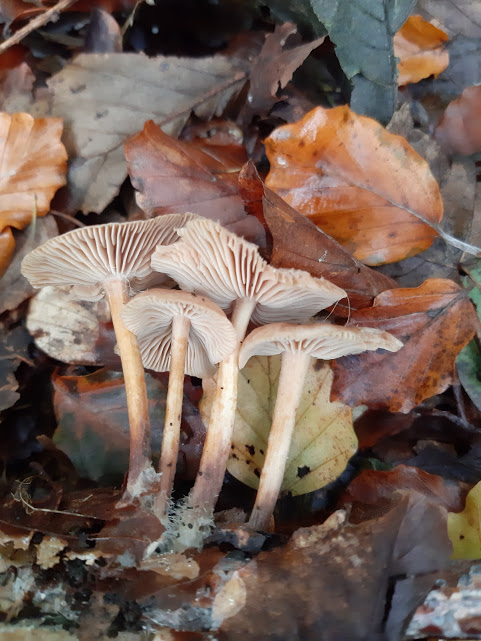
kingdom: Fungi
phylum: Basidiomycota
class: Agaricomycetes
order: Agaricales
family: Omphalotaceae
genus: Collybiopsis
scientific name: Collybiopsis confluens
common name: knippe-fladhat
